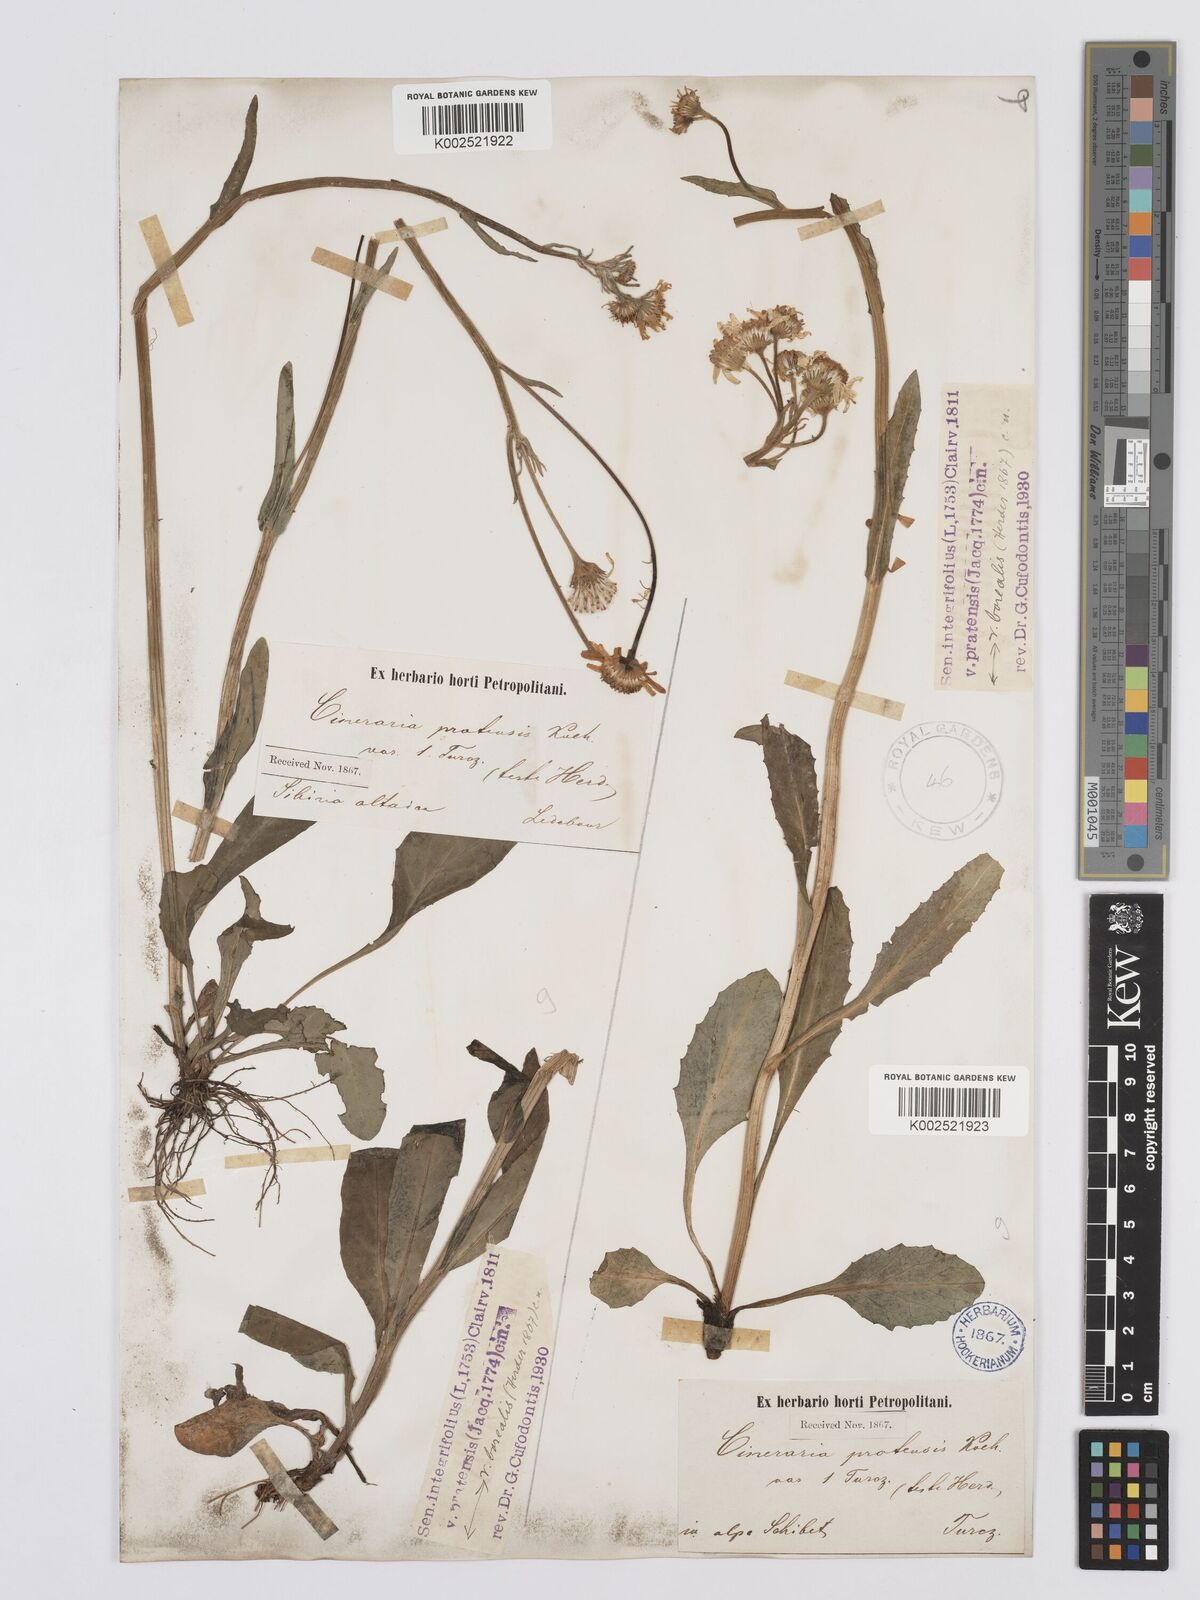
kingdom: Plantae
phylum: Tracheophyta
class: Magnoliopsida
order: Asterales
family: Asteraceae
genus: Tephroseris
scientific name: Tephroseris integrifolia
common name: Field fleawort
